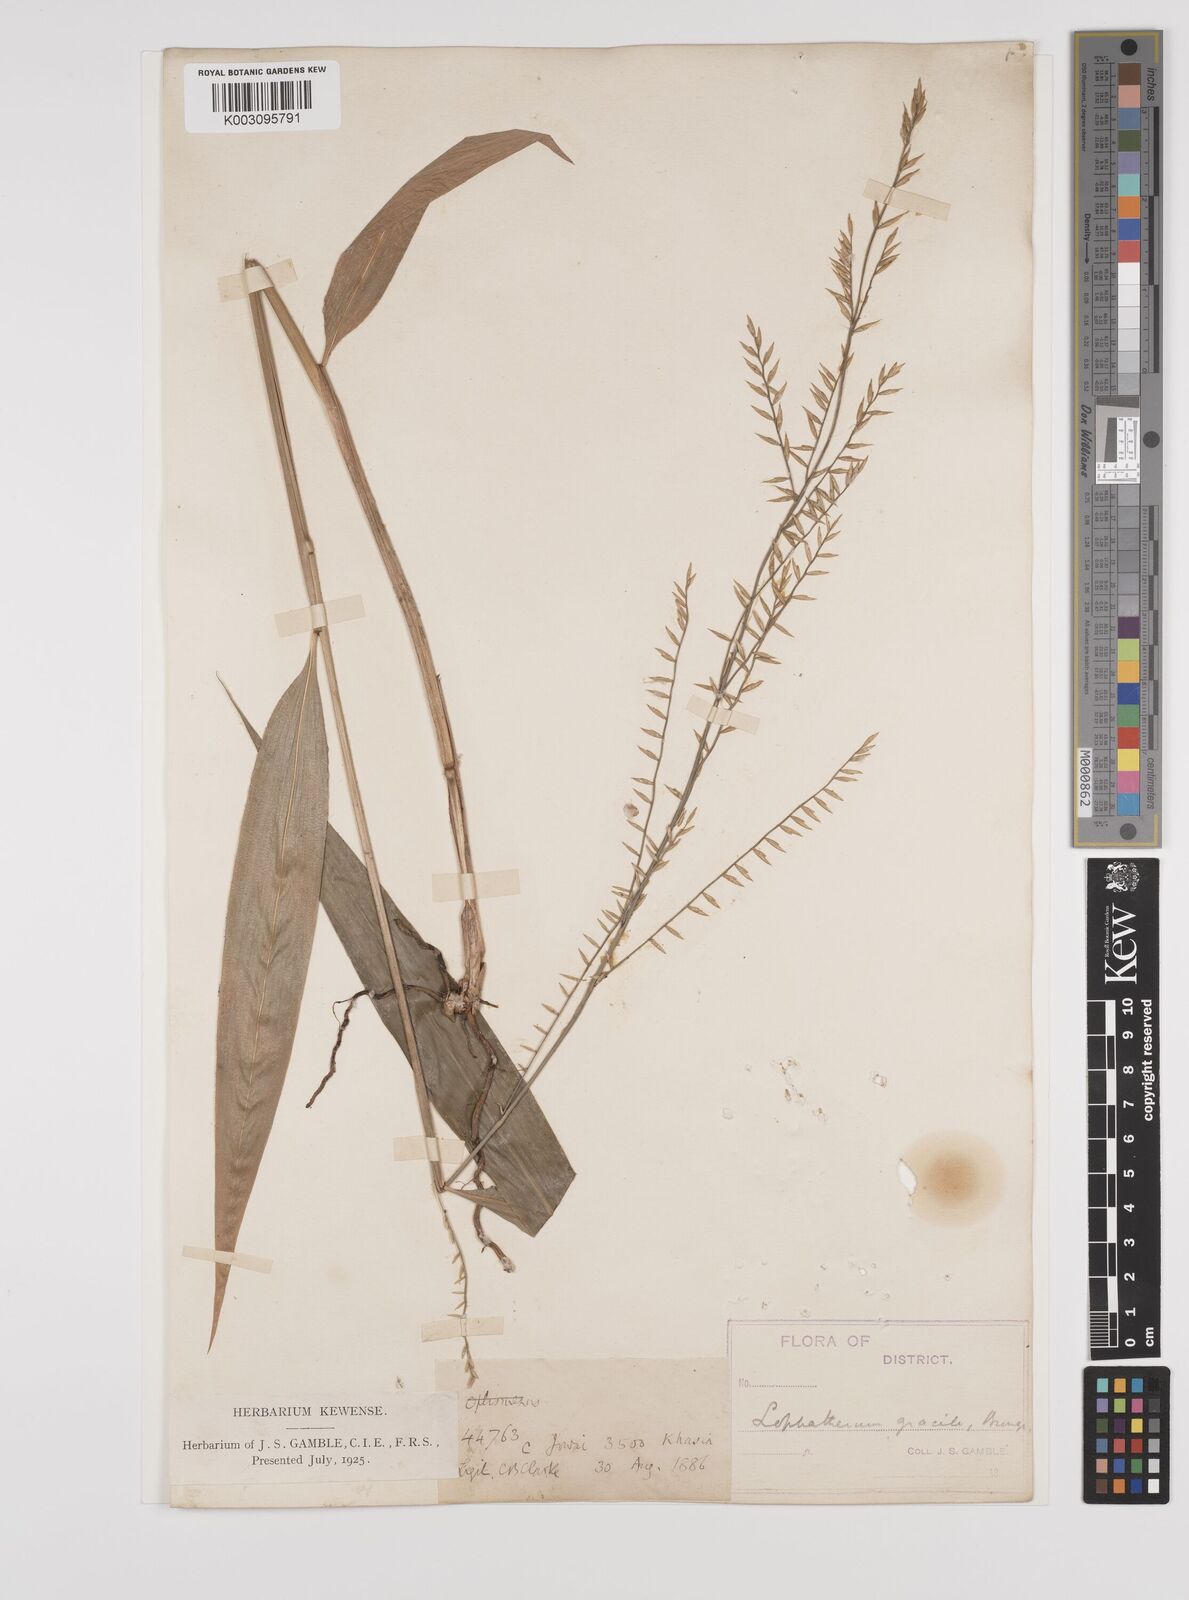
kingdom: Plantae
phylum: Tracheophyta
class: Liliopsida
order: Poales
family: Poaceae
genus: Lophatherum
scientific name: Lophatherum gracile
